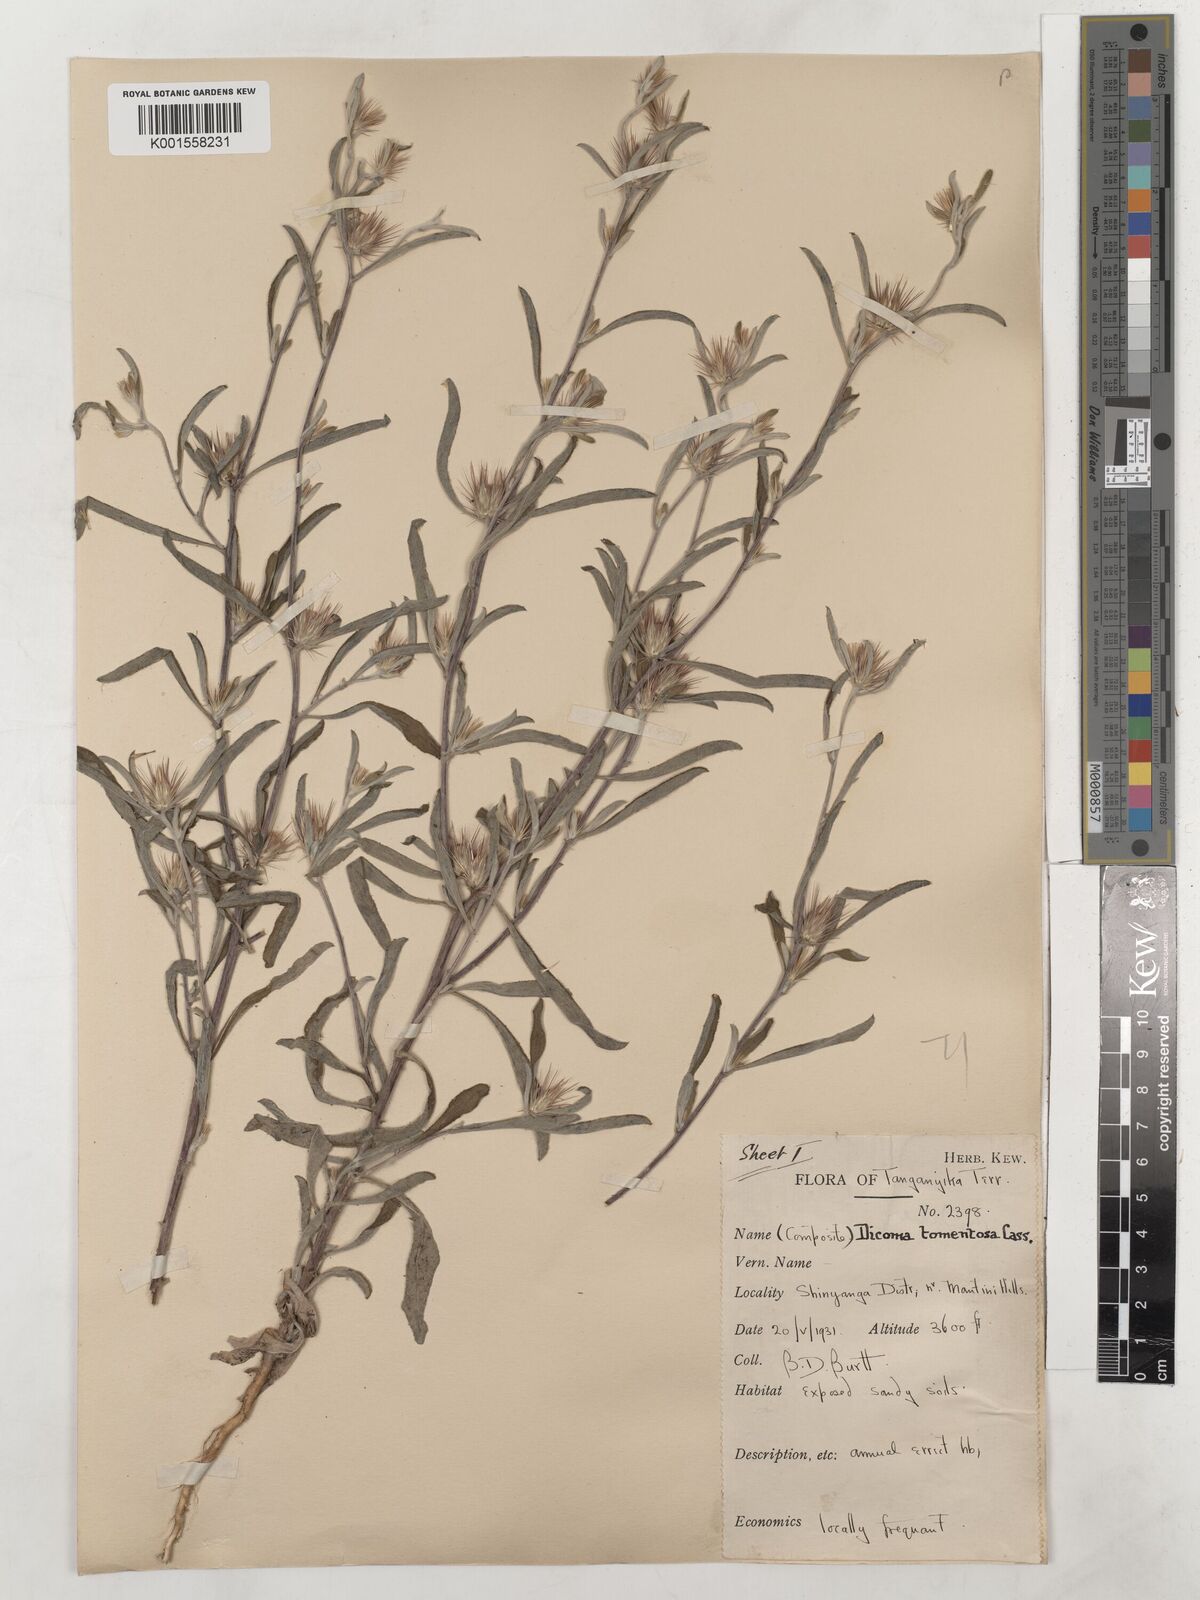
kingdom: Plantae
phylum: Tracheophyta
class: Magnoliopsida
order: Asterales
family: Asteraceae
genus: Dicoma
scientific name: Dicoma tomentosa
